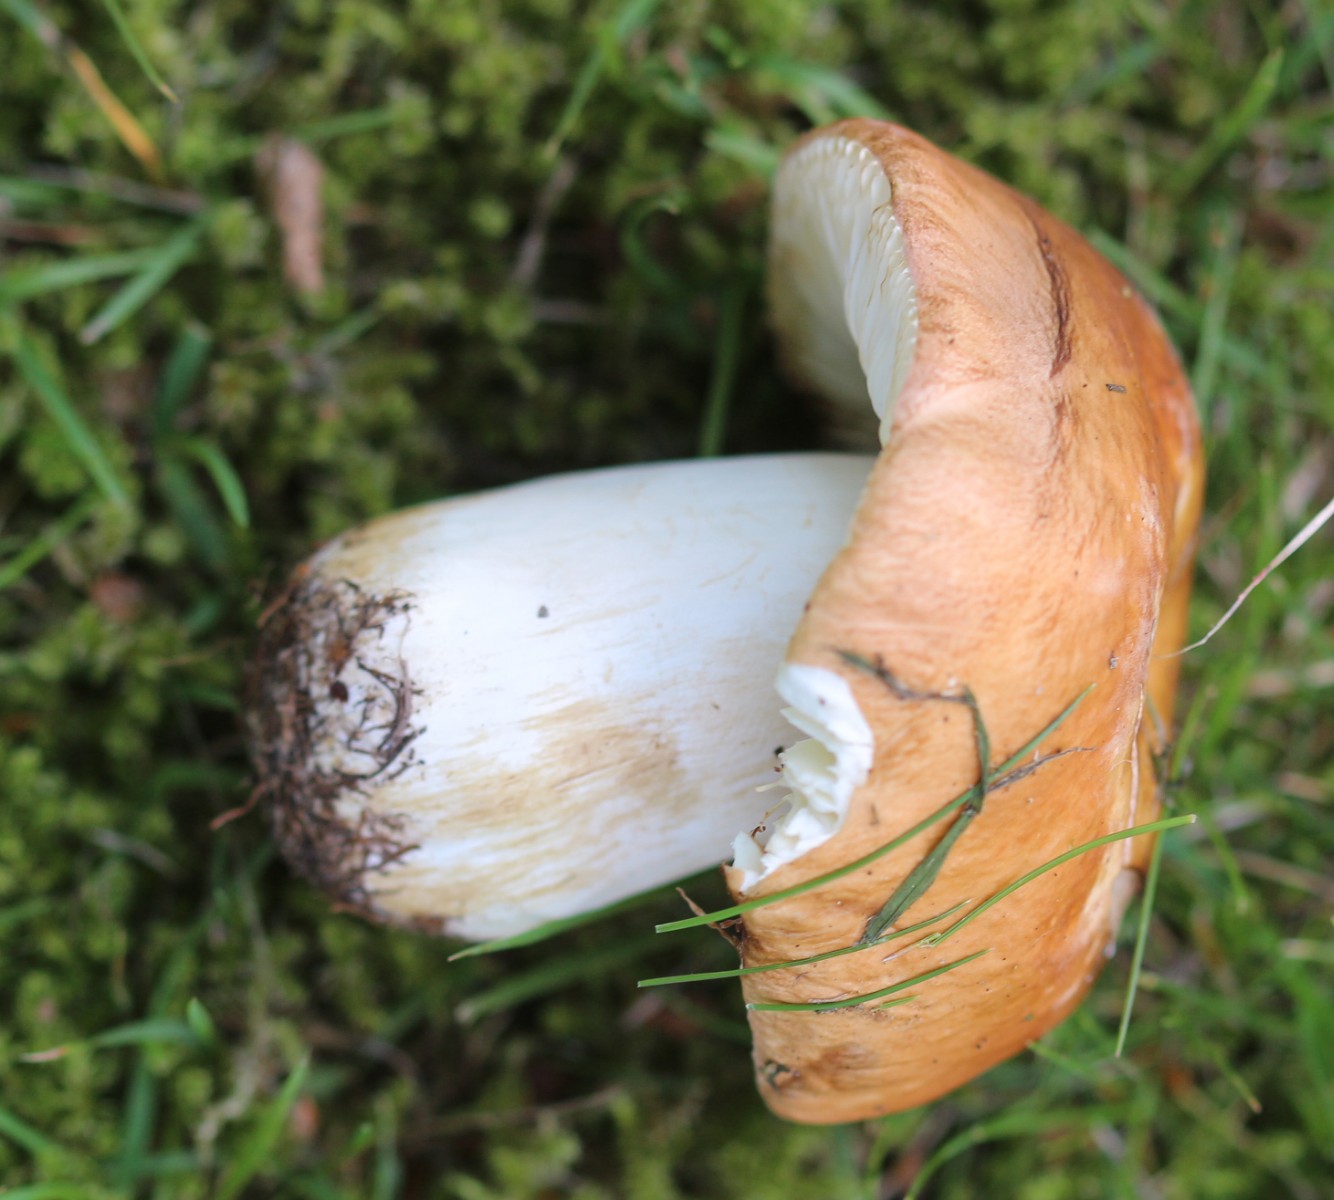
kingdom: Fungi
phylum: Basidiomycota
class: Agaricomycetes
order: Russulales
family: Russulaceae
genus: Russula
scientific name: Russula graveolens
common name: bugtet skørhat
